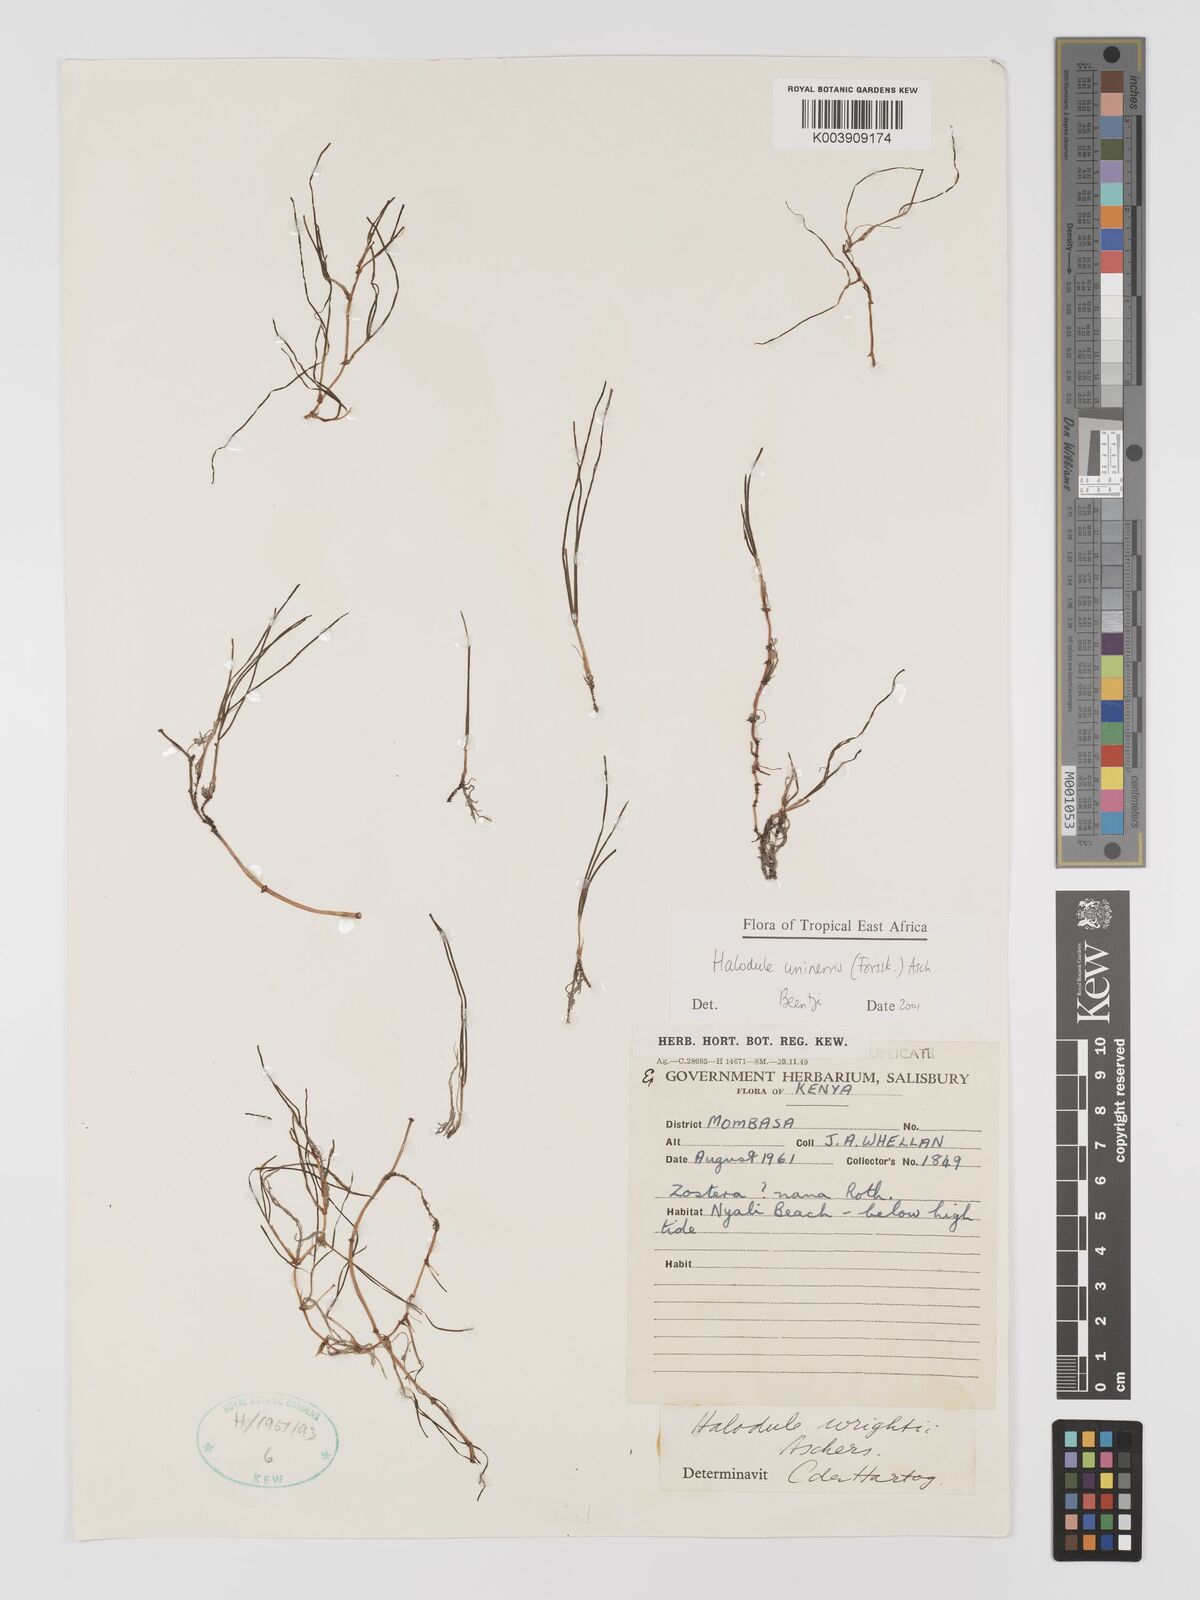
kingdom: Plantae
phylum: Tracheophyta
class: Liliopsida
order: Alismatales
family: Cymodoceaceae
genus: Halodule
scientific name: Halodule uninervis
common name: Narrowleaf seagrass
